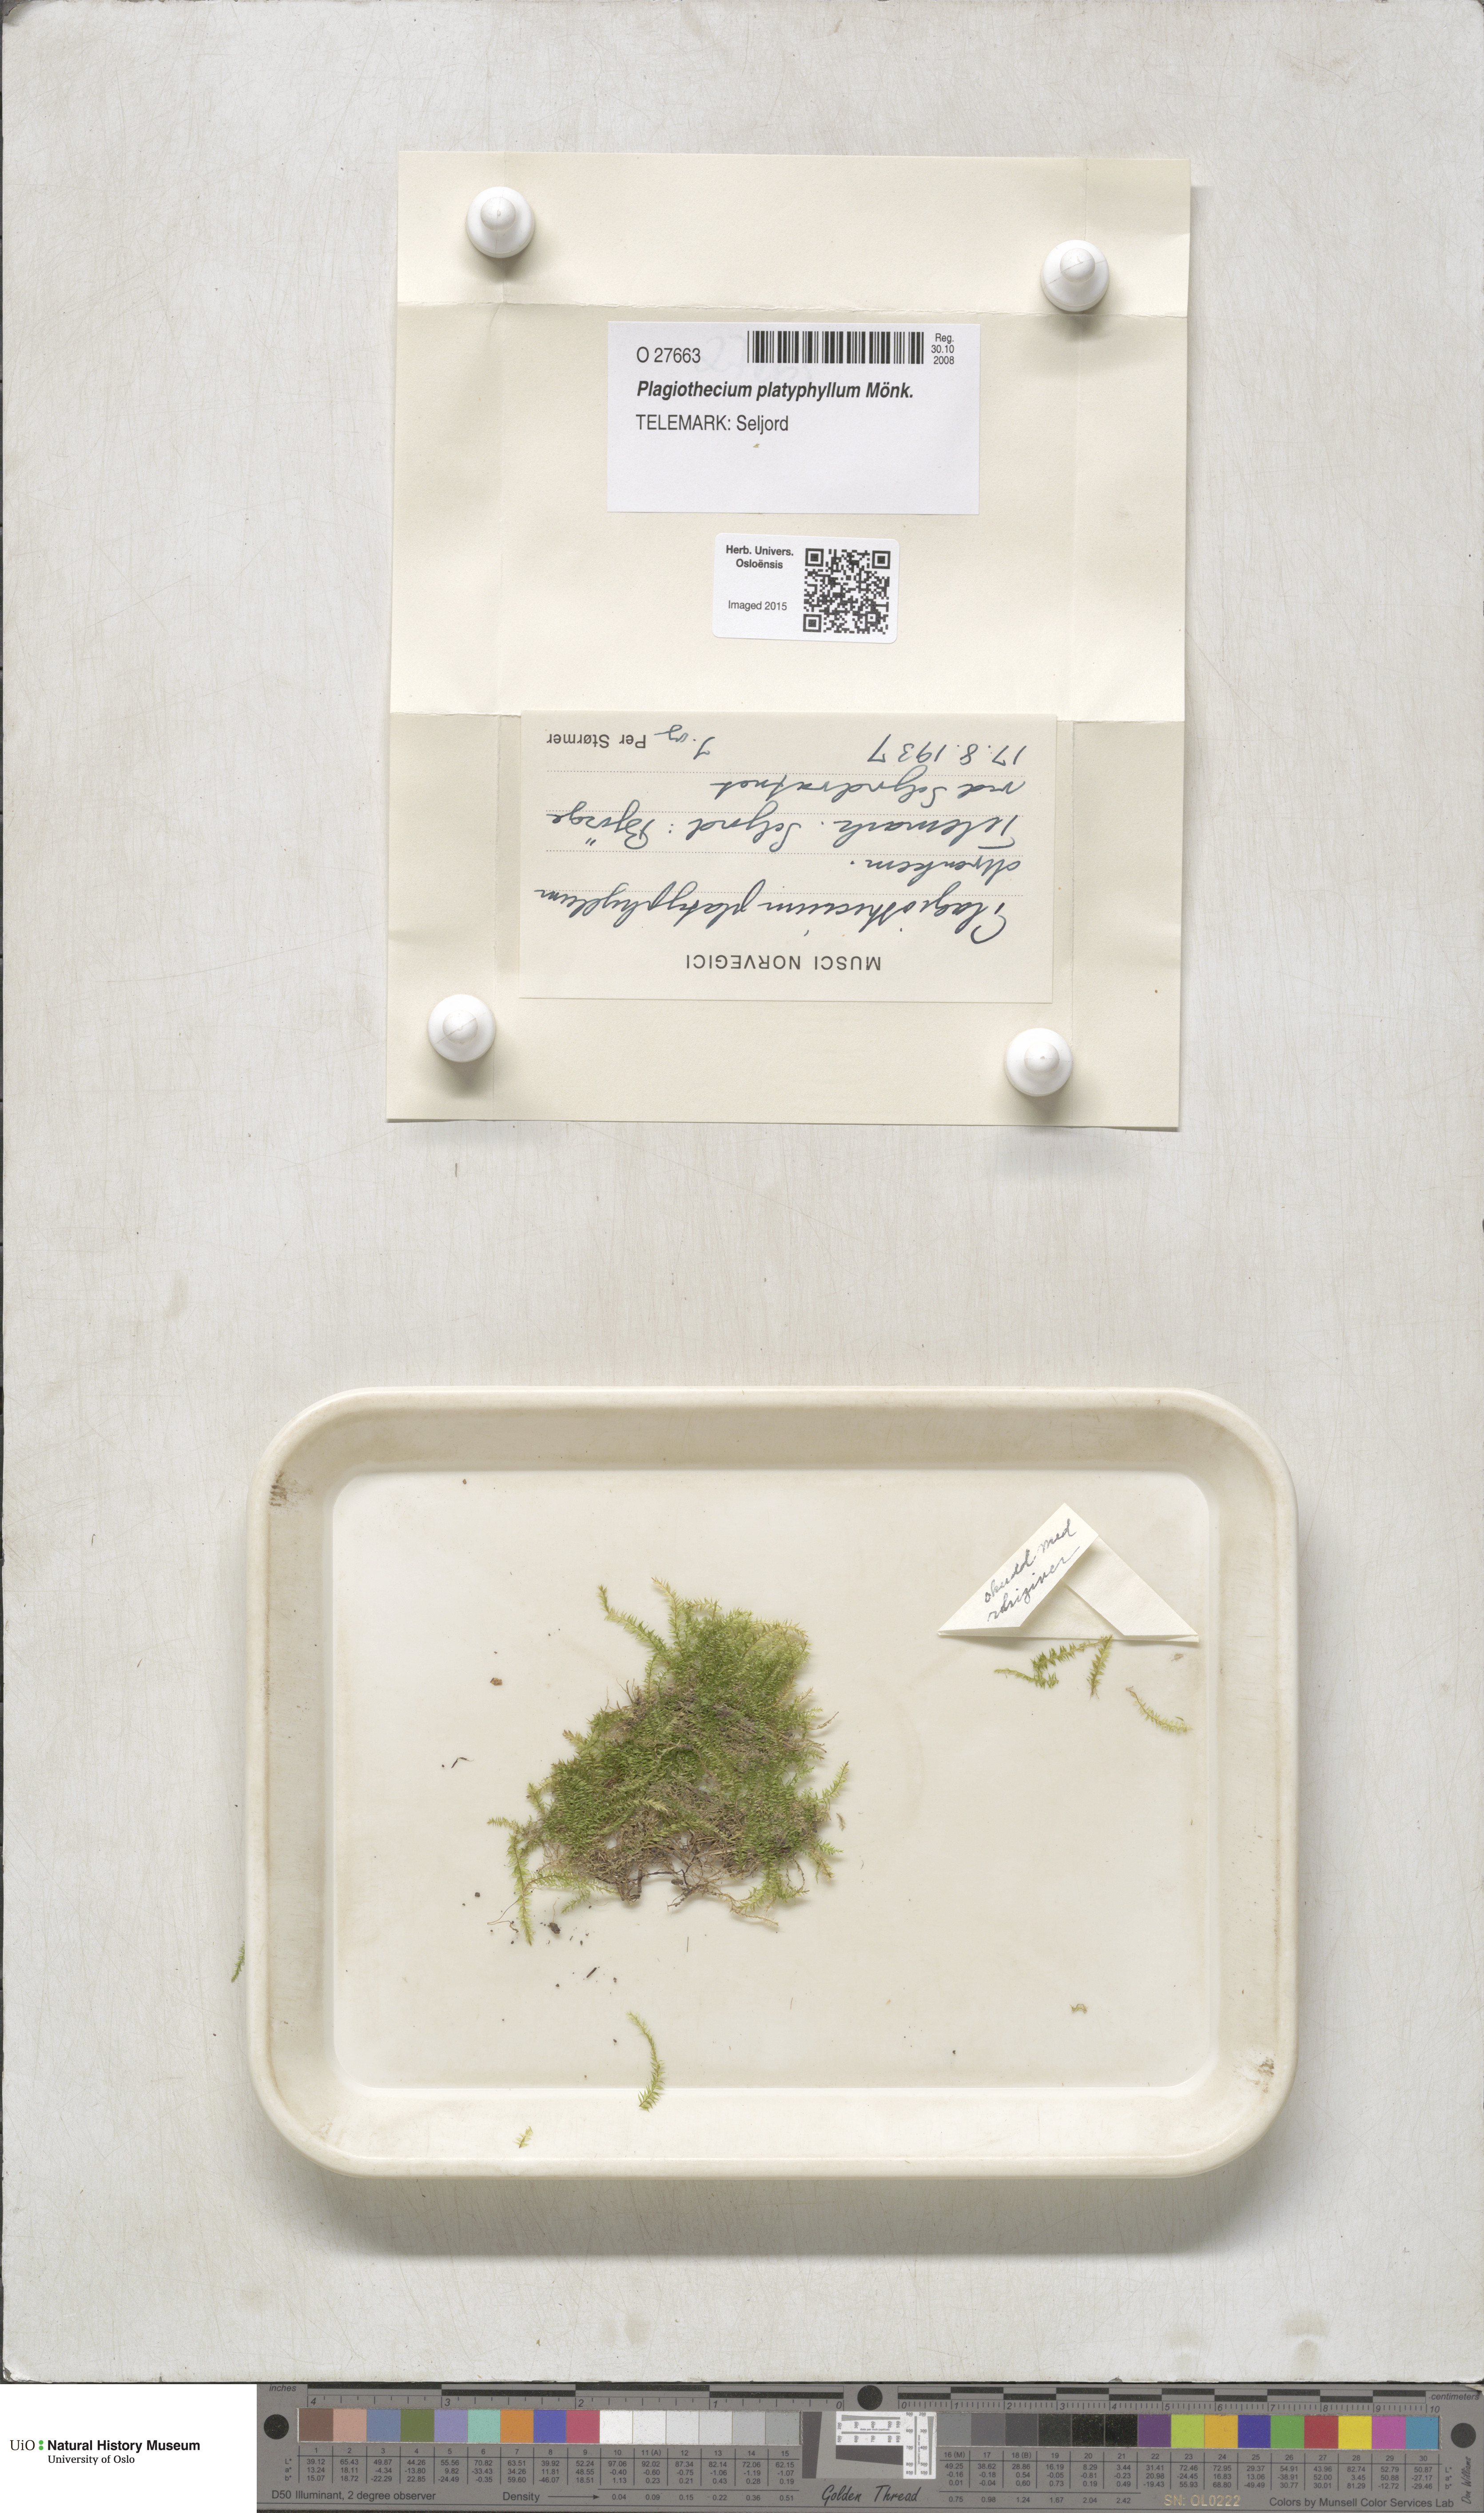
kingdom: Plantae
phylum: Bryophyta
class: Bryopsida
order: Hypnales
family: Plagiotheciaceae
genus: Plagiothecium
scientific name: Plagiothecium platyphyllum
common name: Alpine silk-moss
